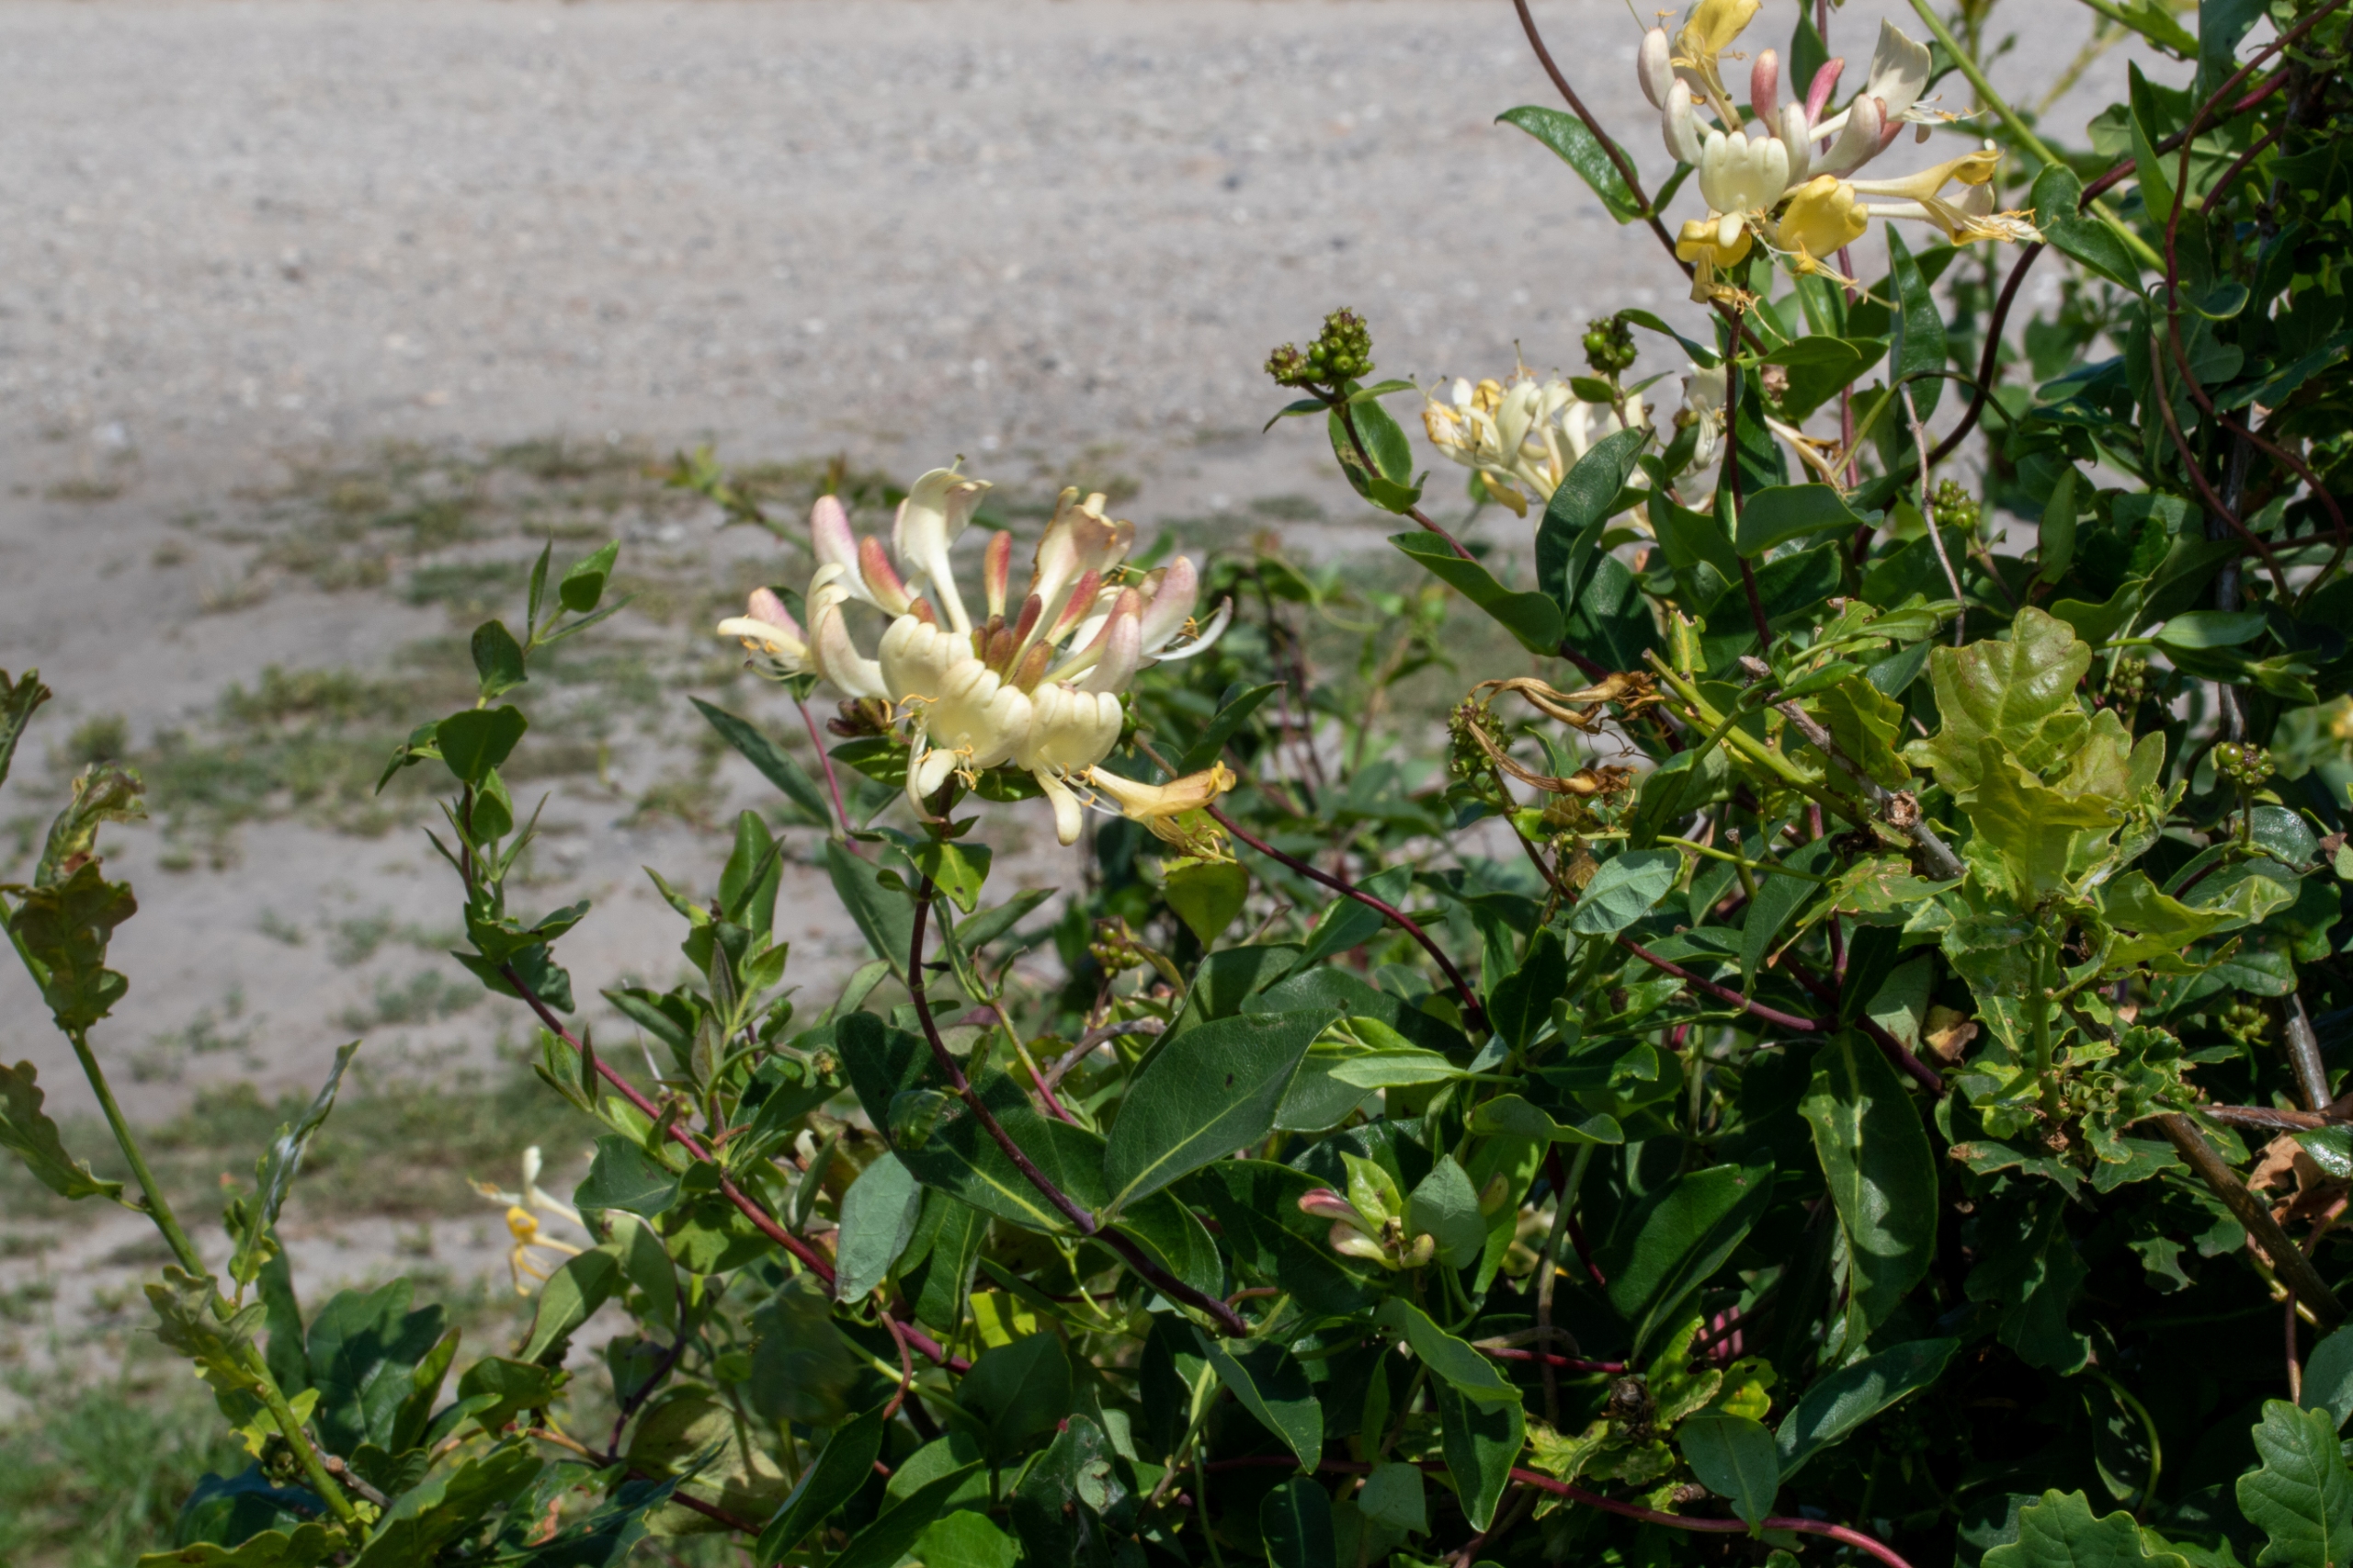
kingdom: Plantae
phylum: Tracheophyta
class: Magnoliopsida
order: Dipsacales
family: Caprifoliaceae
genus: Lonicera
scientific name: Lonicera periclymenum
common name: Almindelig gedeblad
